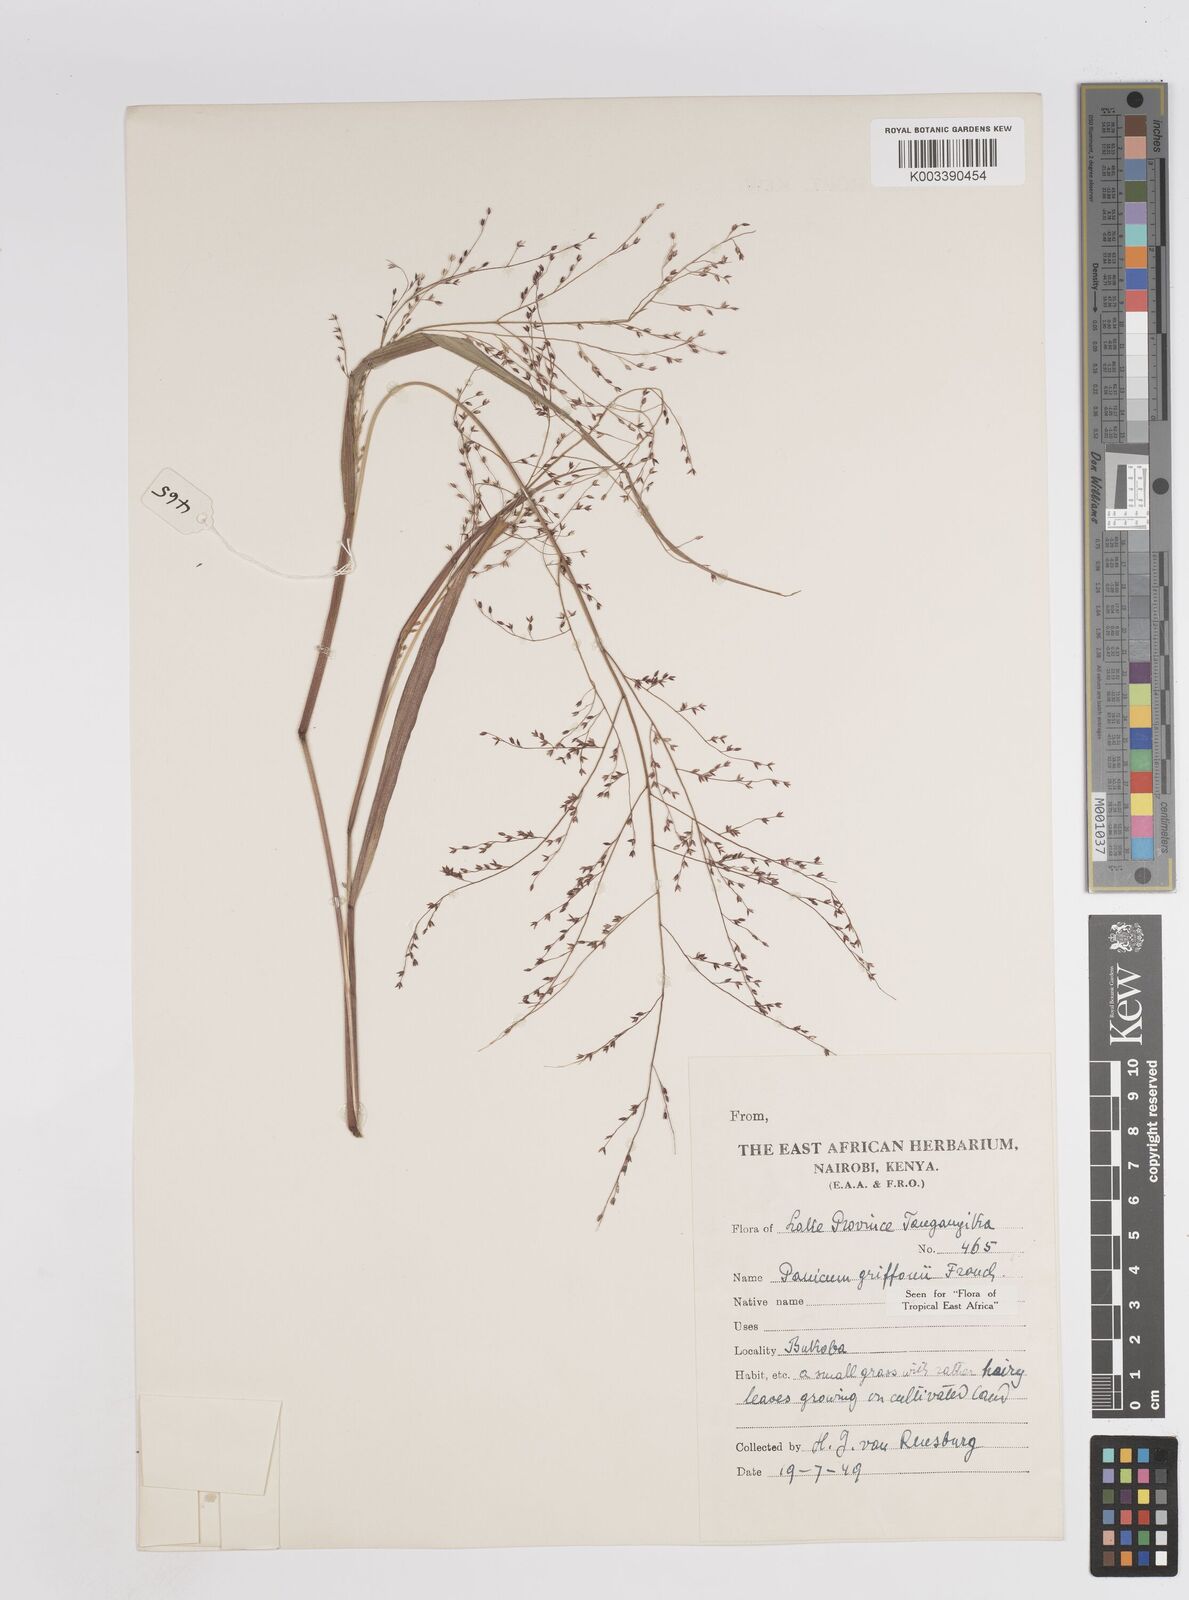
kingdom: Plantae
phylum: Tracheophyta
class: Liliopsida
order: Poales
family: Poaceae
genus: Panicum
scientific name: Panicum griffonii
